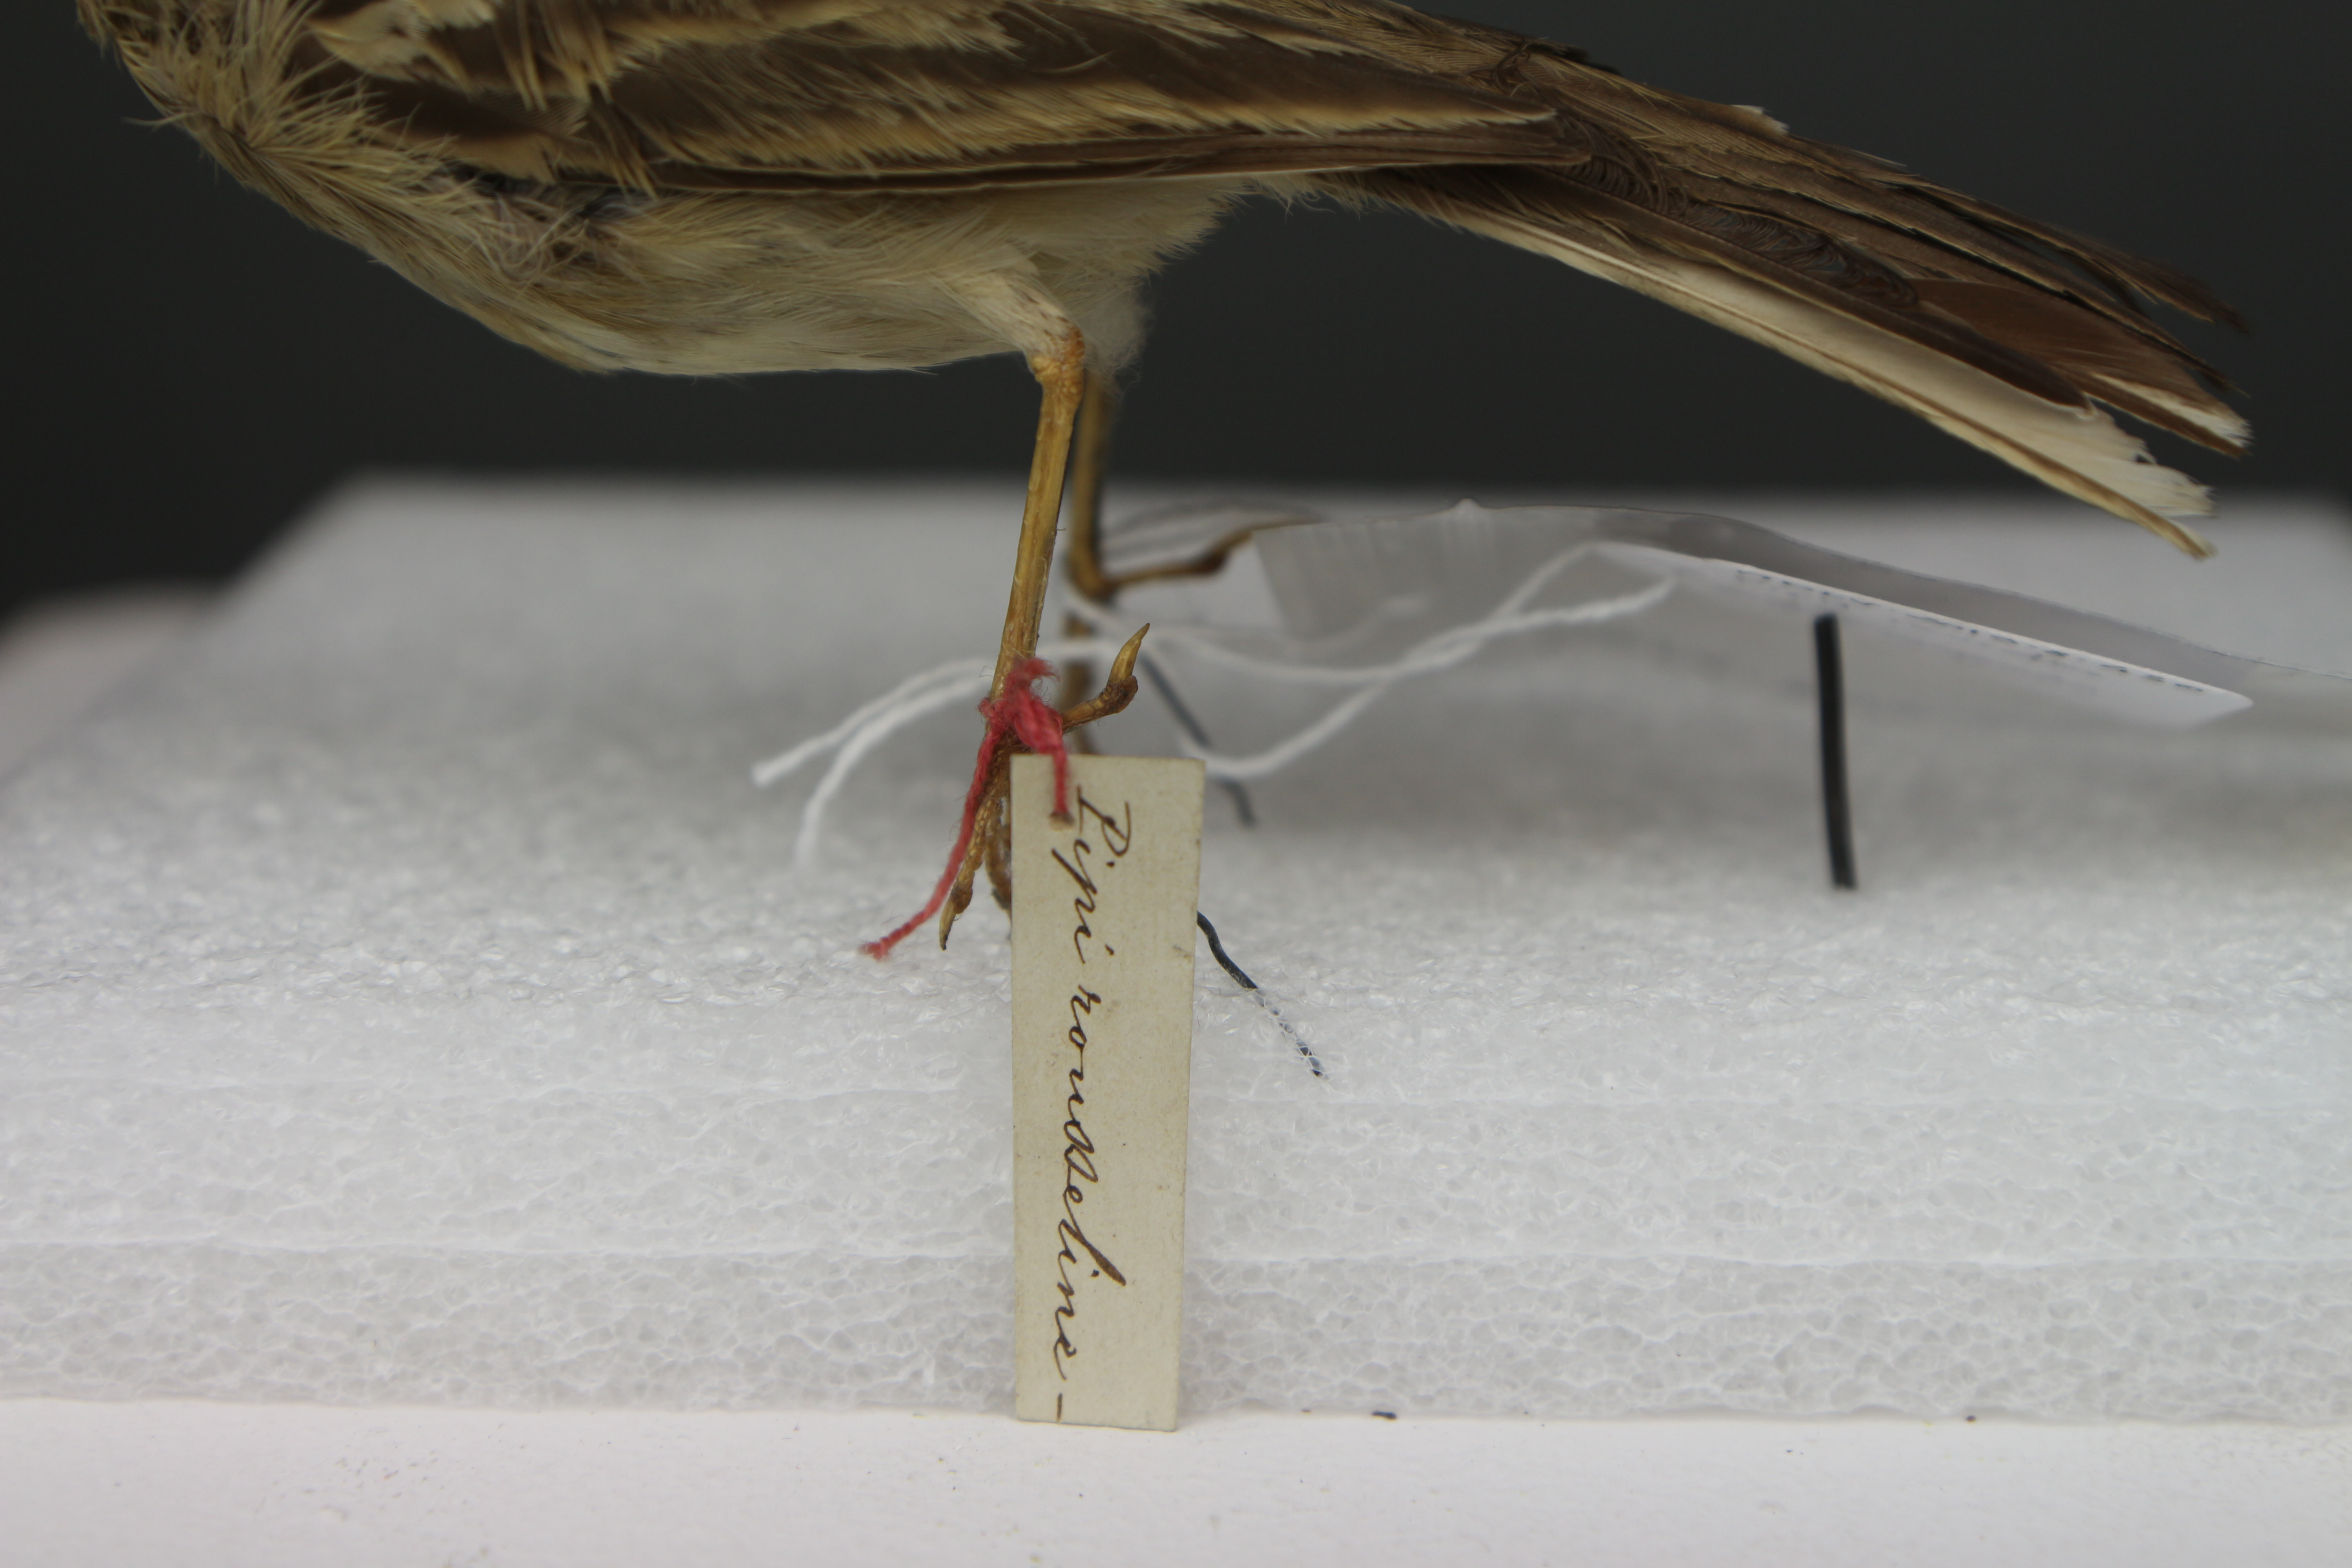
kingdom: Animalia
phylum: Chordata
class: Aves
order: Passeriformes
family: Motacillidae
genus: Anthus
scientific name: Anthus campestris
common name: Tawny pipit
